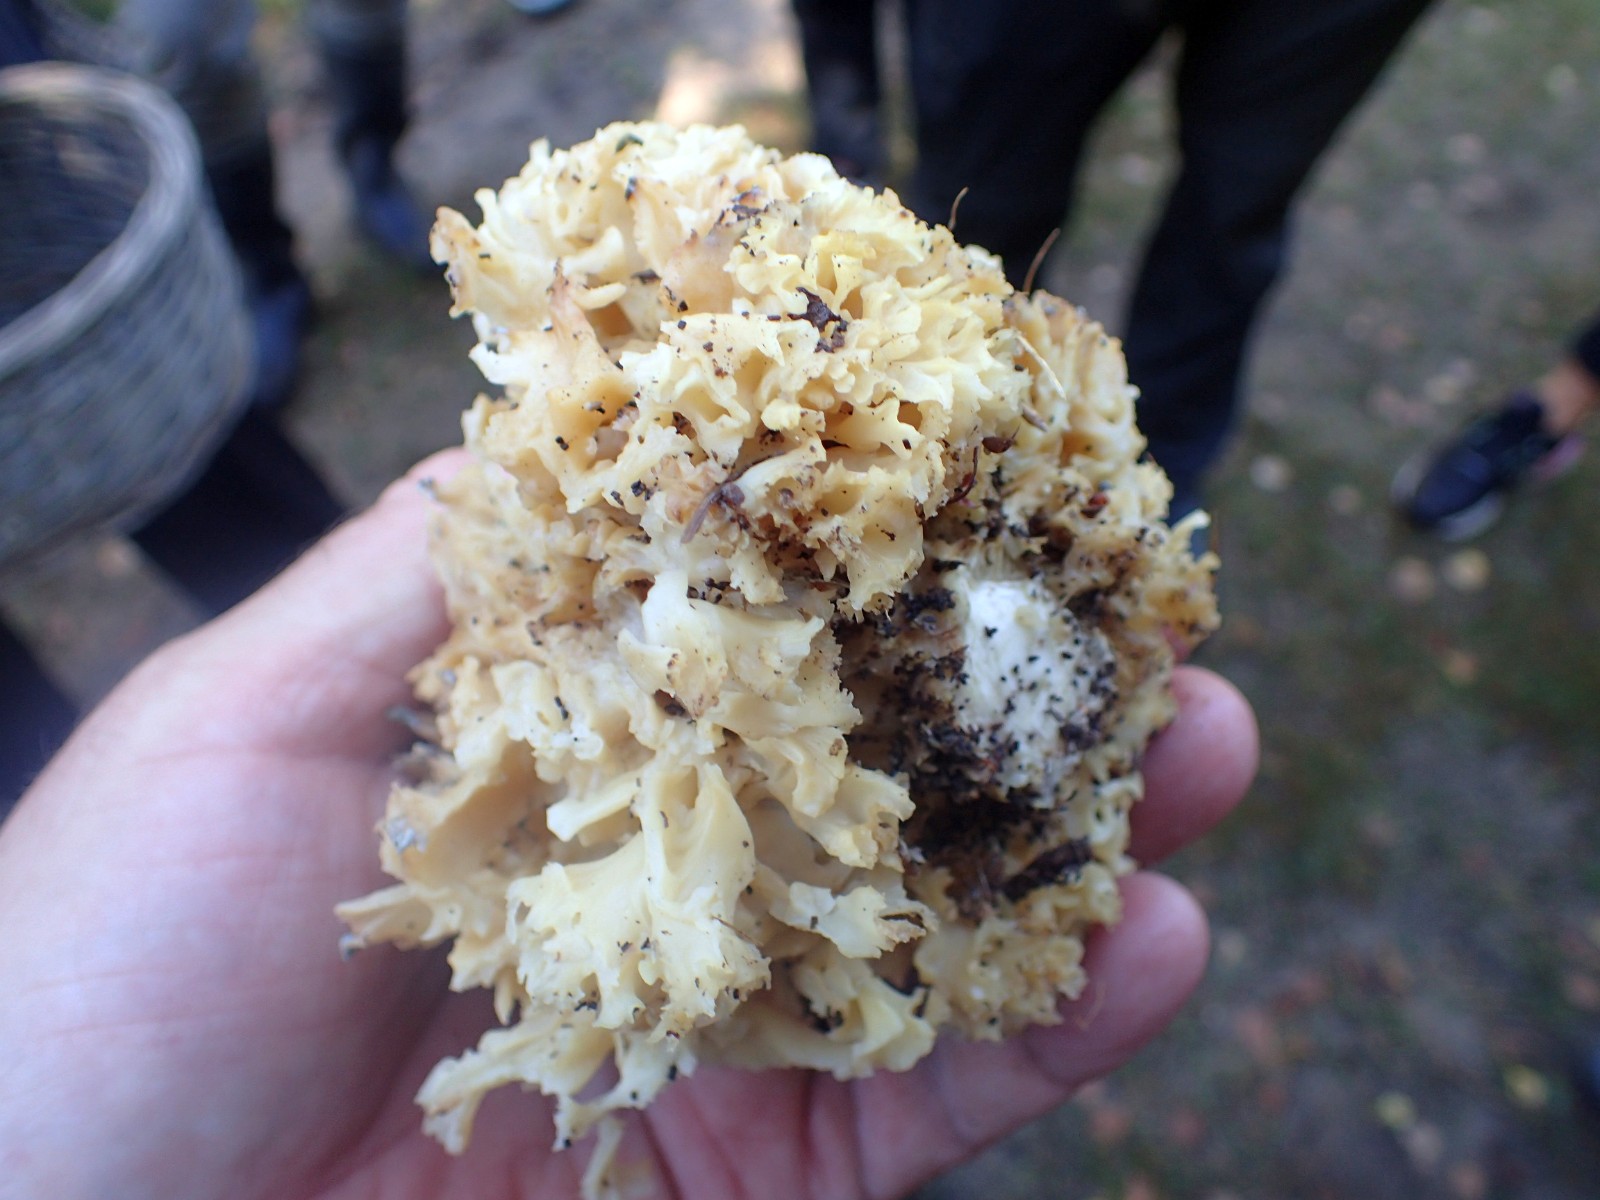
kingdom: Fungi
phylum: Basidiomycota
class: Agaricomycetes
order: Polyporales
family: Sparassidaceae
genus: Sparassis
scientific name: Sparassis crispa
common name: kruset blomkålssvamp
